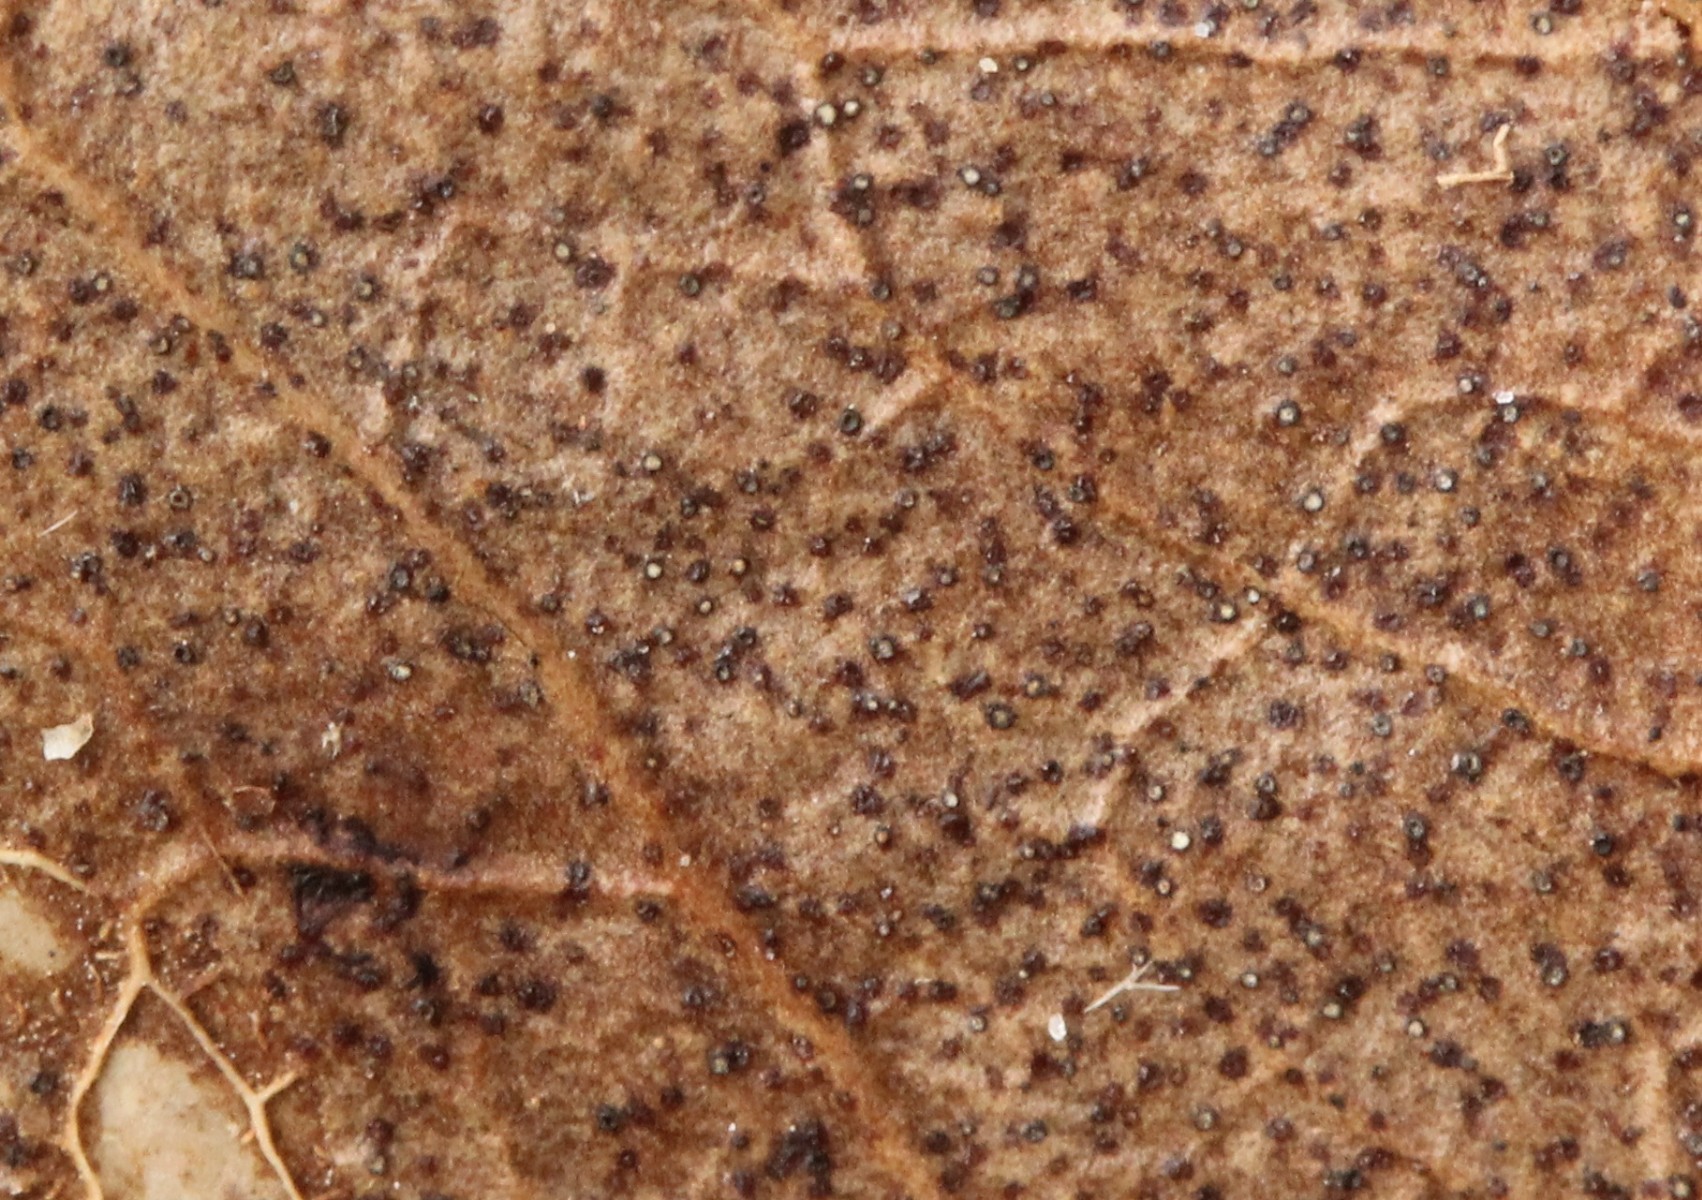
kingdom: Fungi
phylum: Ascomycota
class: Leotiomycetes
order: Helotiales
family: Cenangiaceae
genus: Trochila
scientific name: Trochila craterium
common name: vedbend-lågskive
